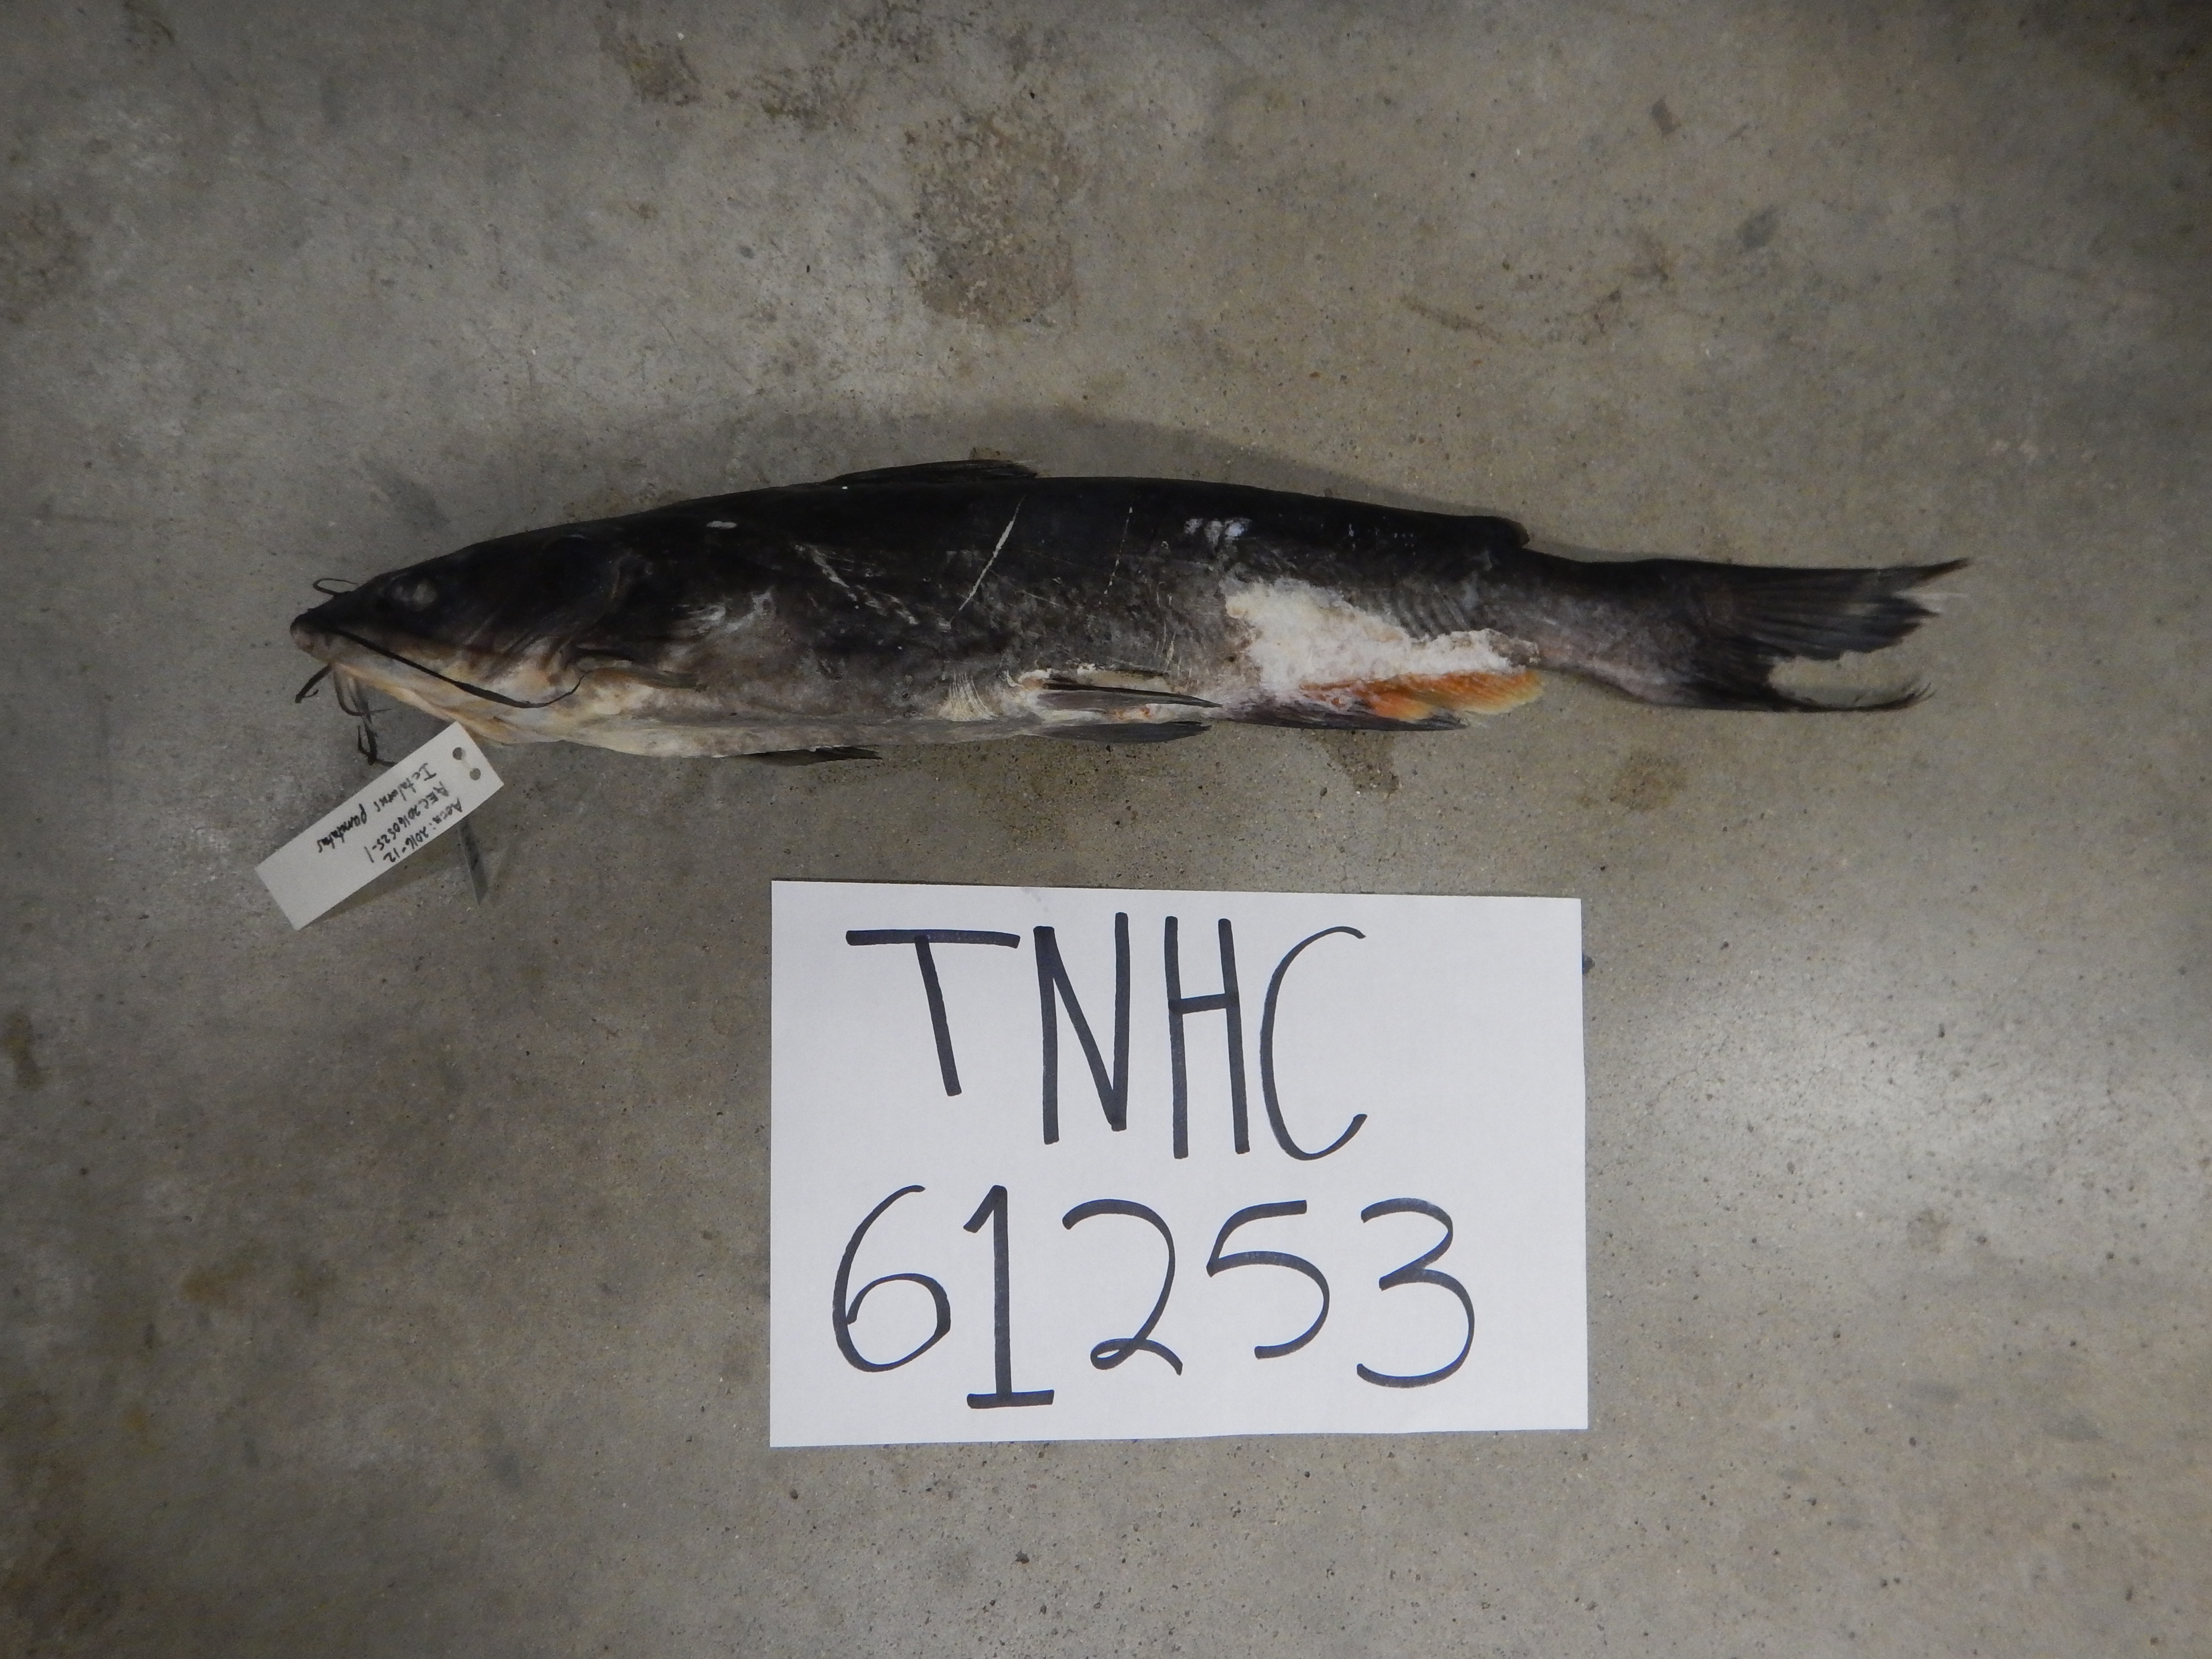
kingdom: Animalia
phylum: Chordata
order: Siluriformes
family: Ictaluridae
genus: Ictalurus
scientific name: Ictalurus punctatus
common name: Channel catfish
